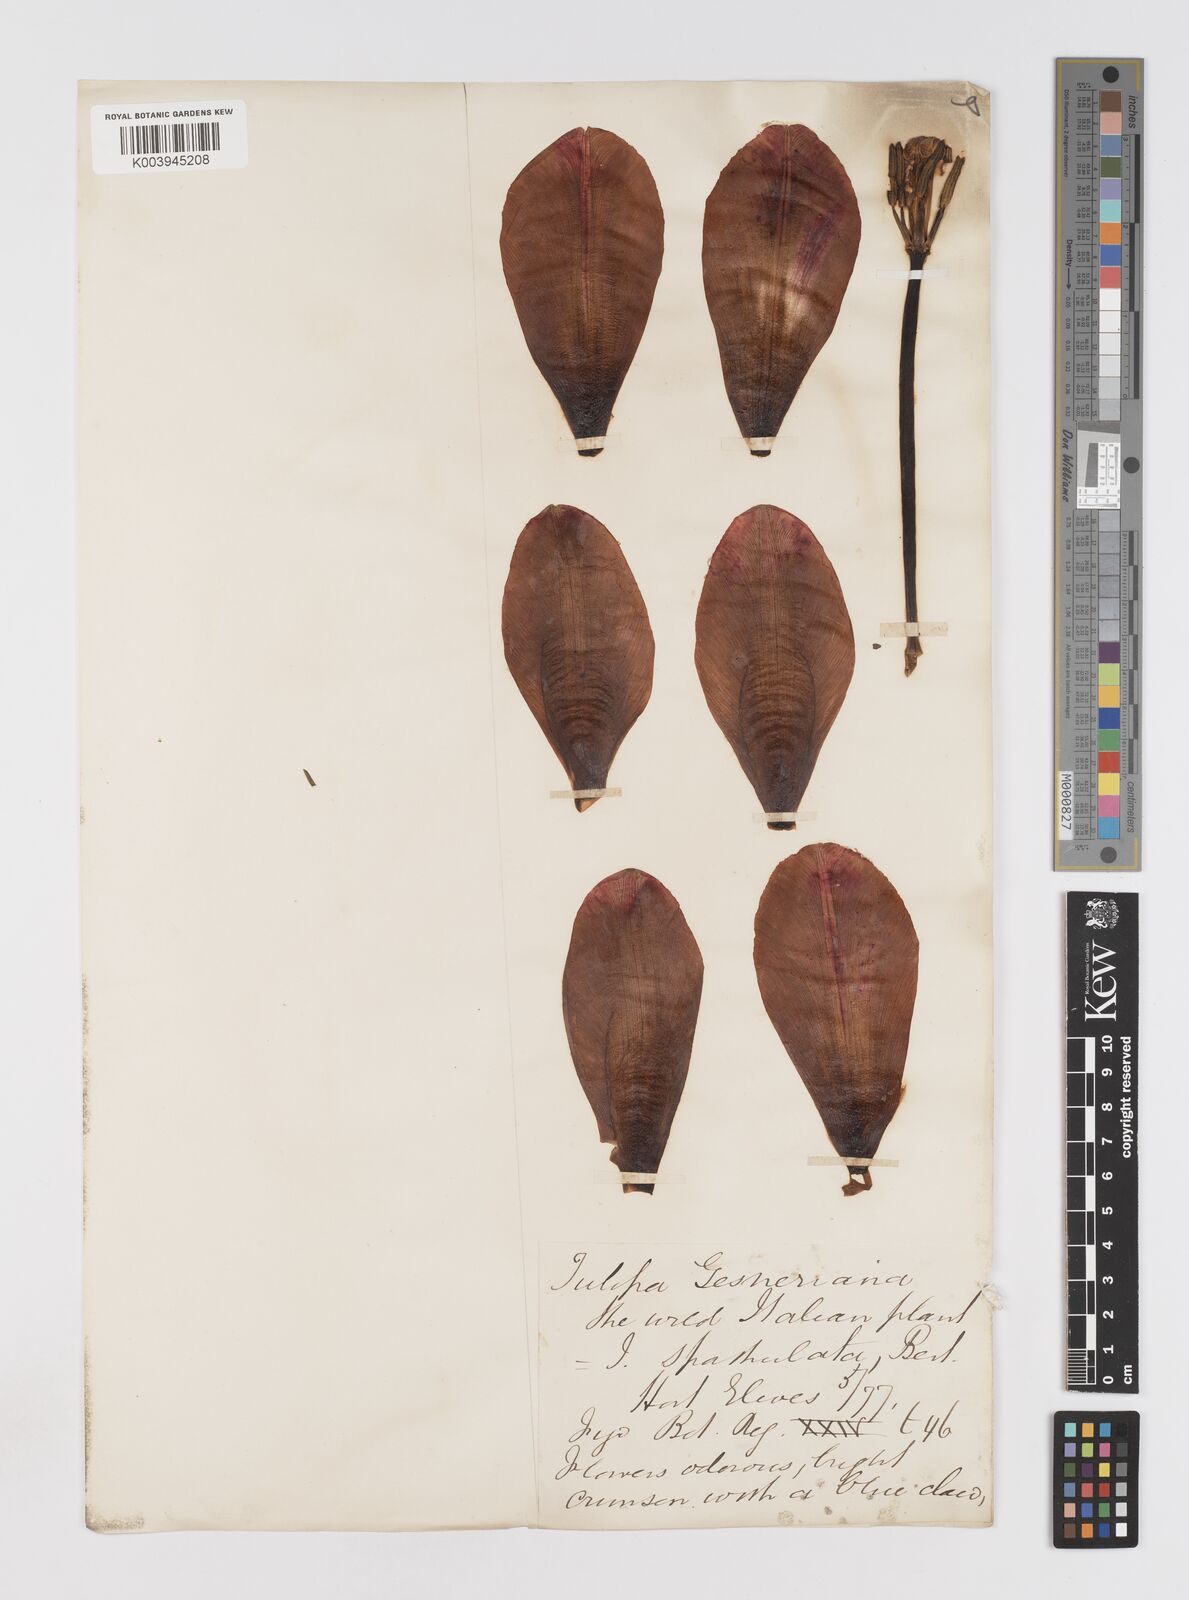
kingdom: Plantae
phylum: Tracheophyta
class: Liliopsida
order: Liliales
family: Liliaceae
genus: Tulipa
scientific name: Tulipa gesneriana
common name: Garden tulip
